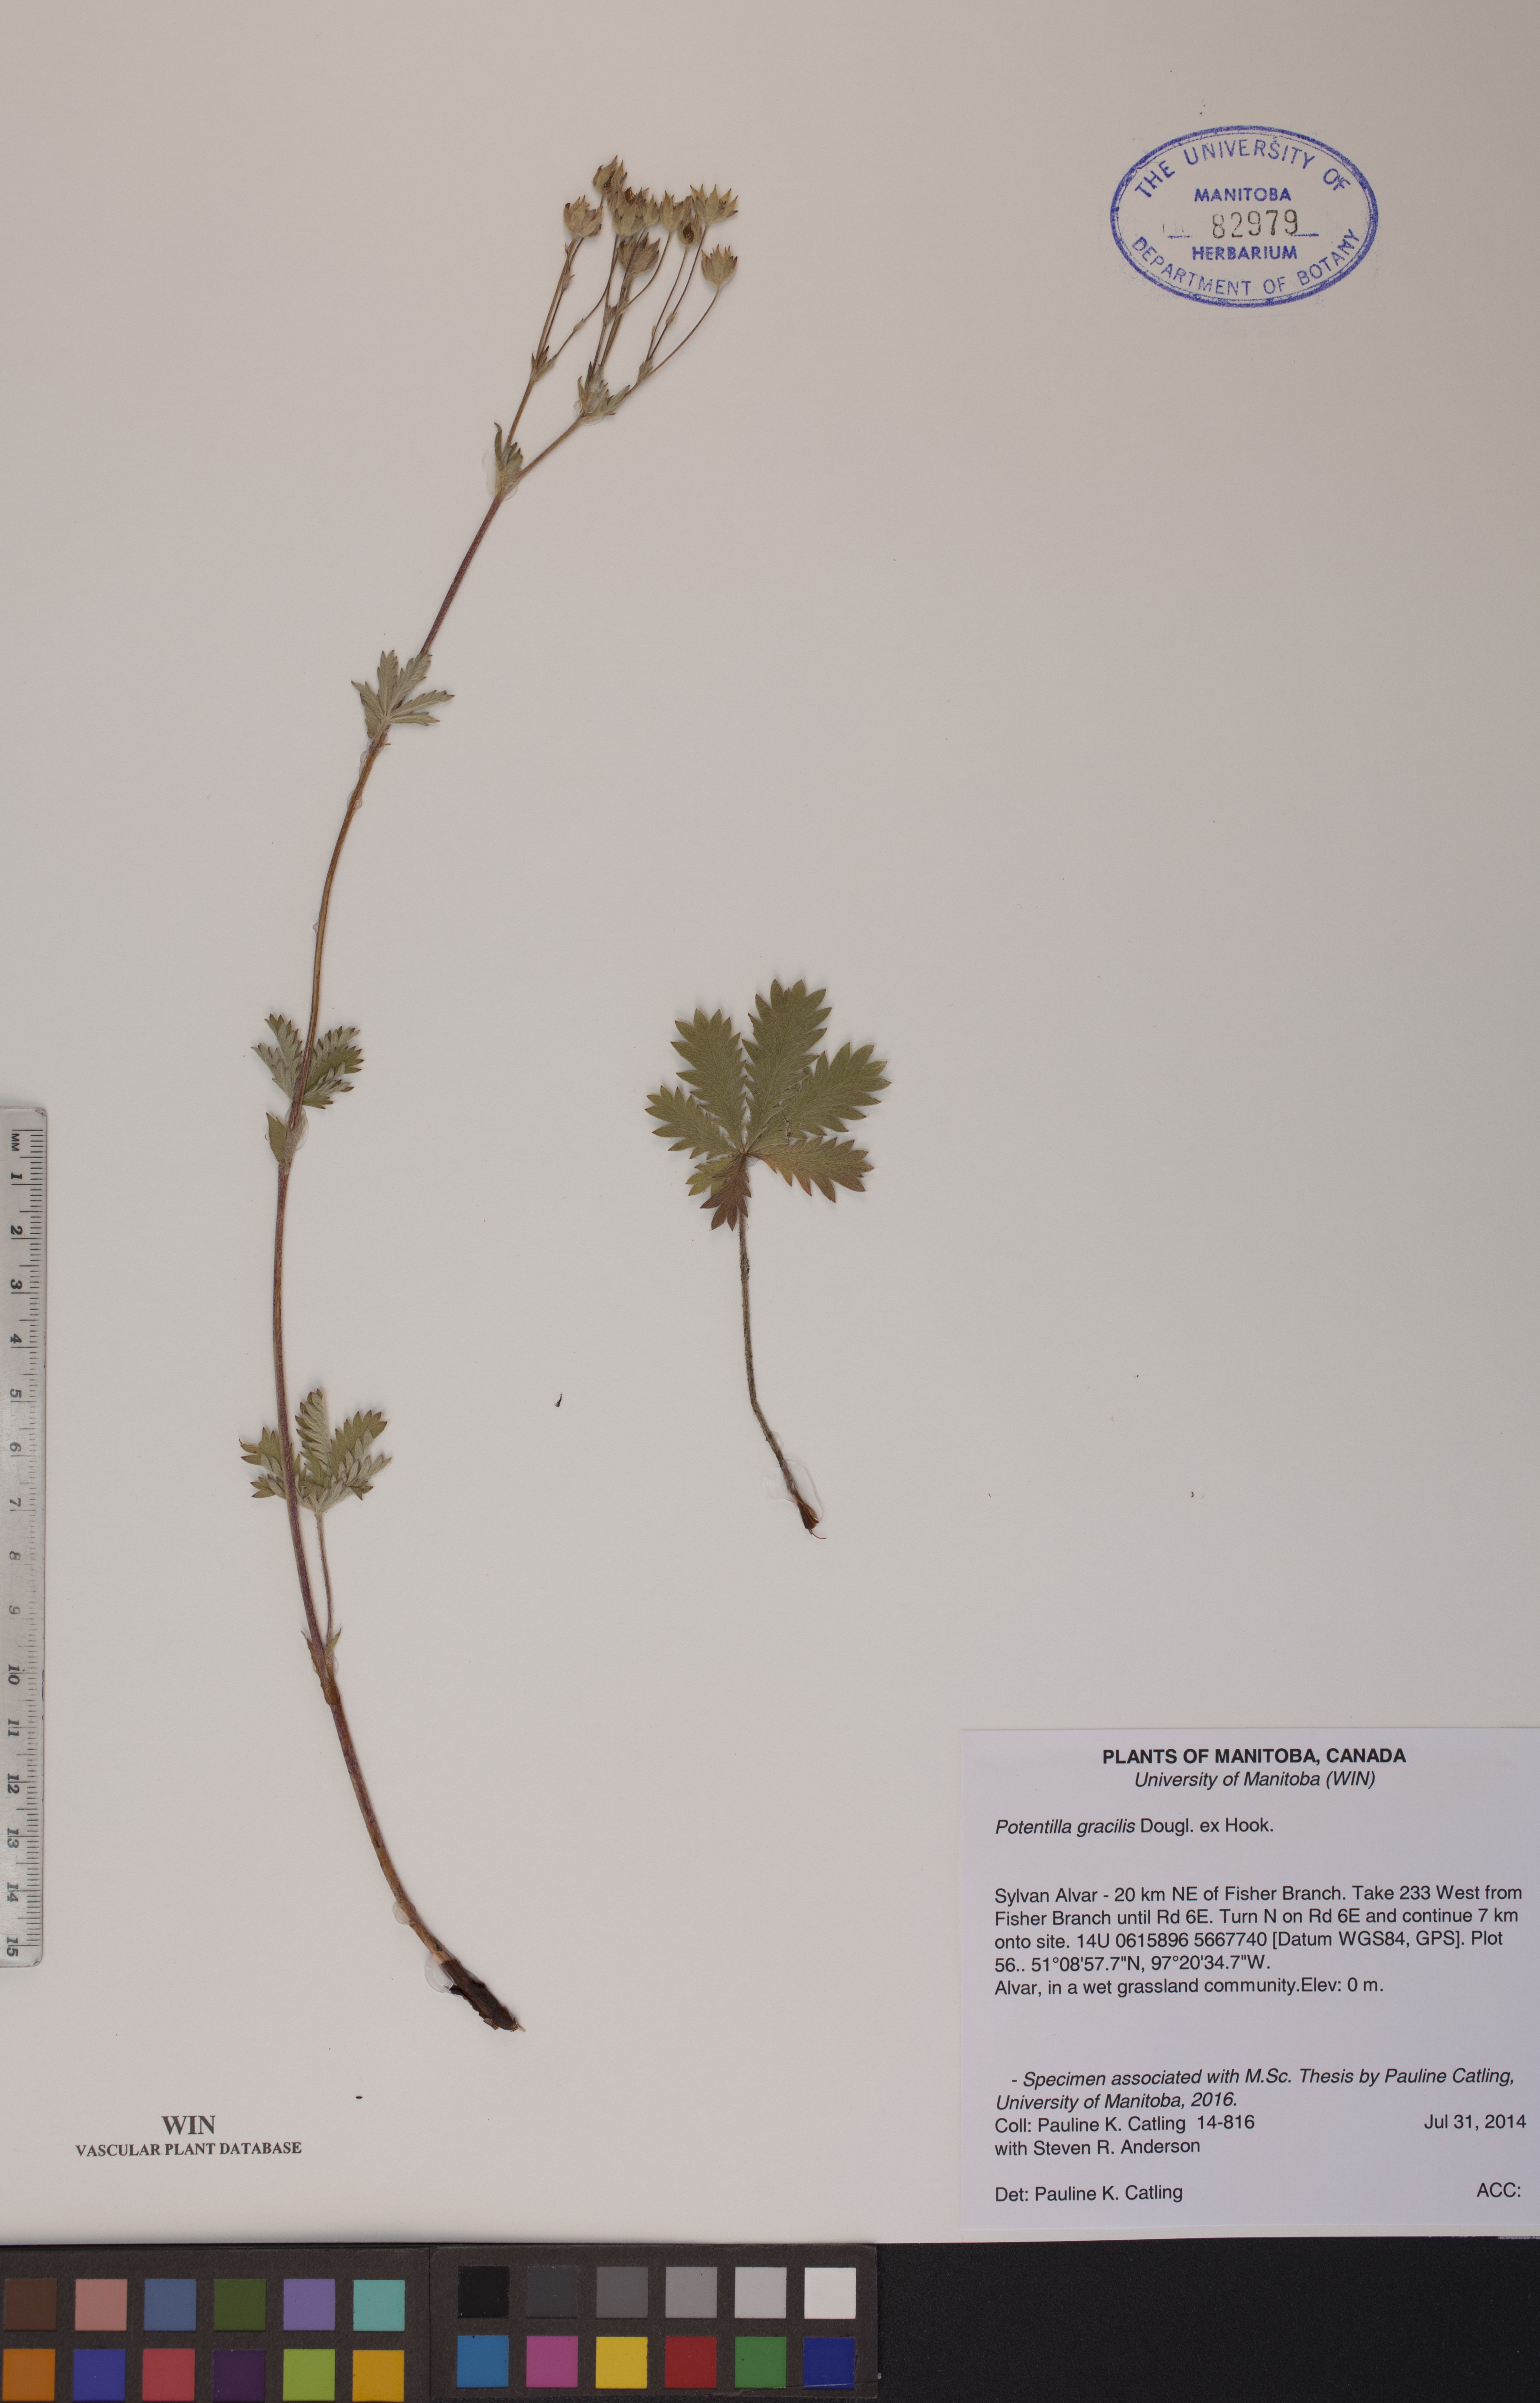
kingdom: Plantae
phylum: Tracheophyta
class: Magnoliopsida
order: Rosales
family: Rosaceae
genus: Potentilla
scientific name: Potentilla gracilis
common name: Graceful cinquefoil
